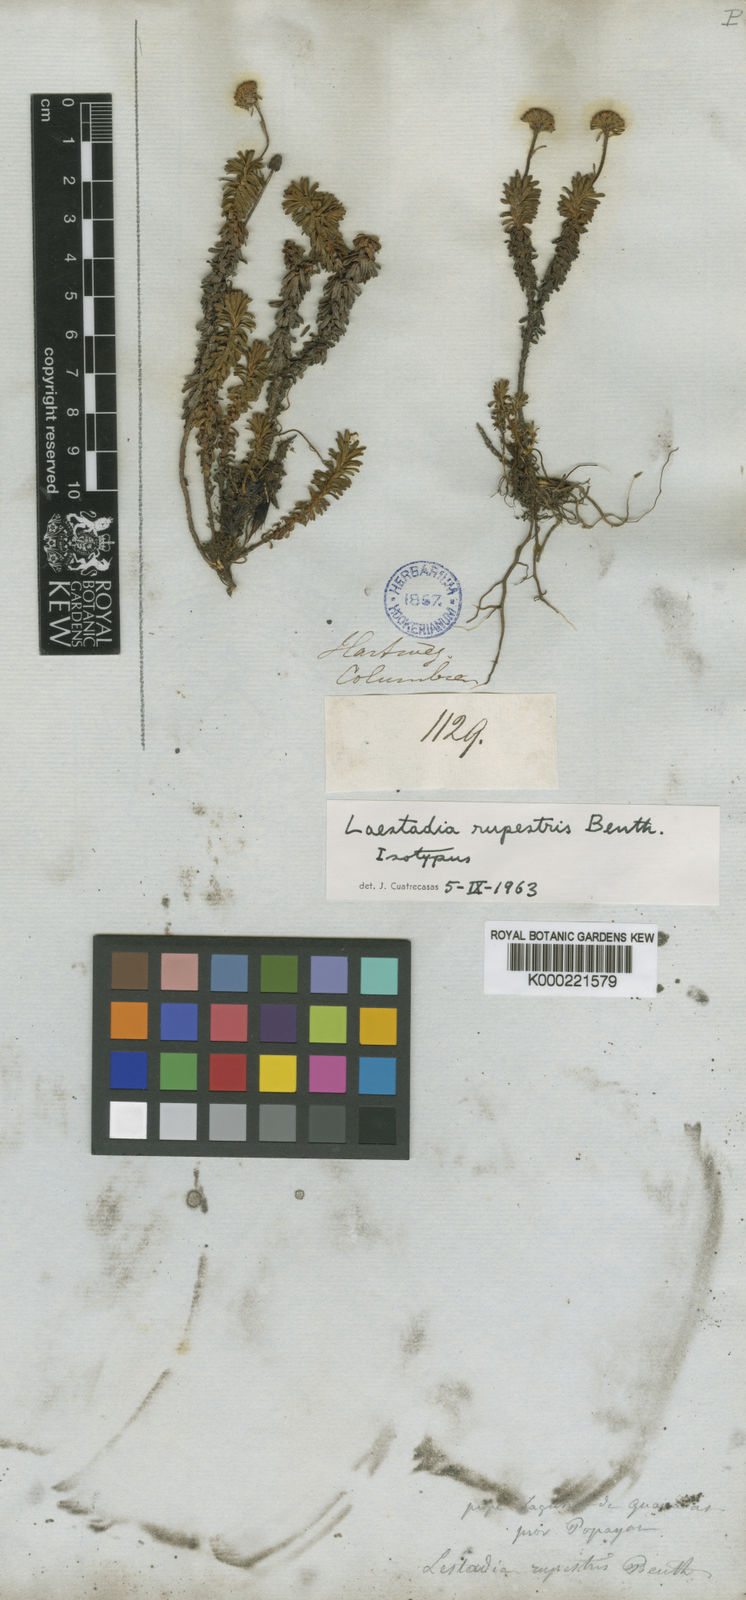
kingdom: Plantae
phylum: Tracheophyta
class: Magnoliopsida
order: Asterales
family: Asteraceae
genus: Laestadia
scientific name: Laestadia rupestris
